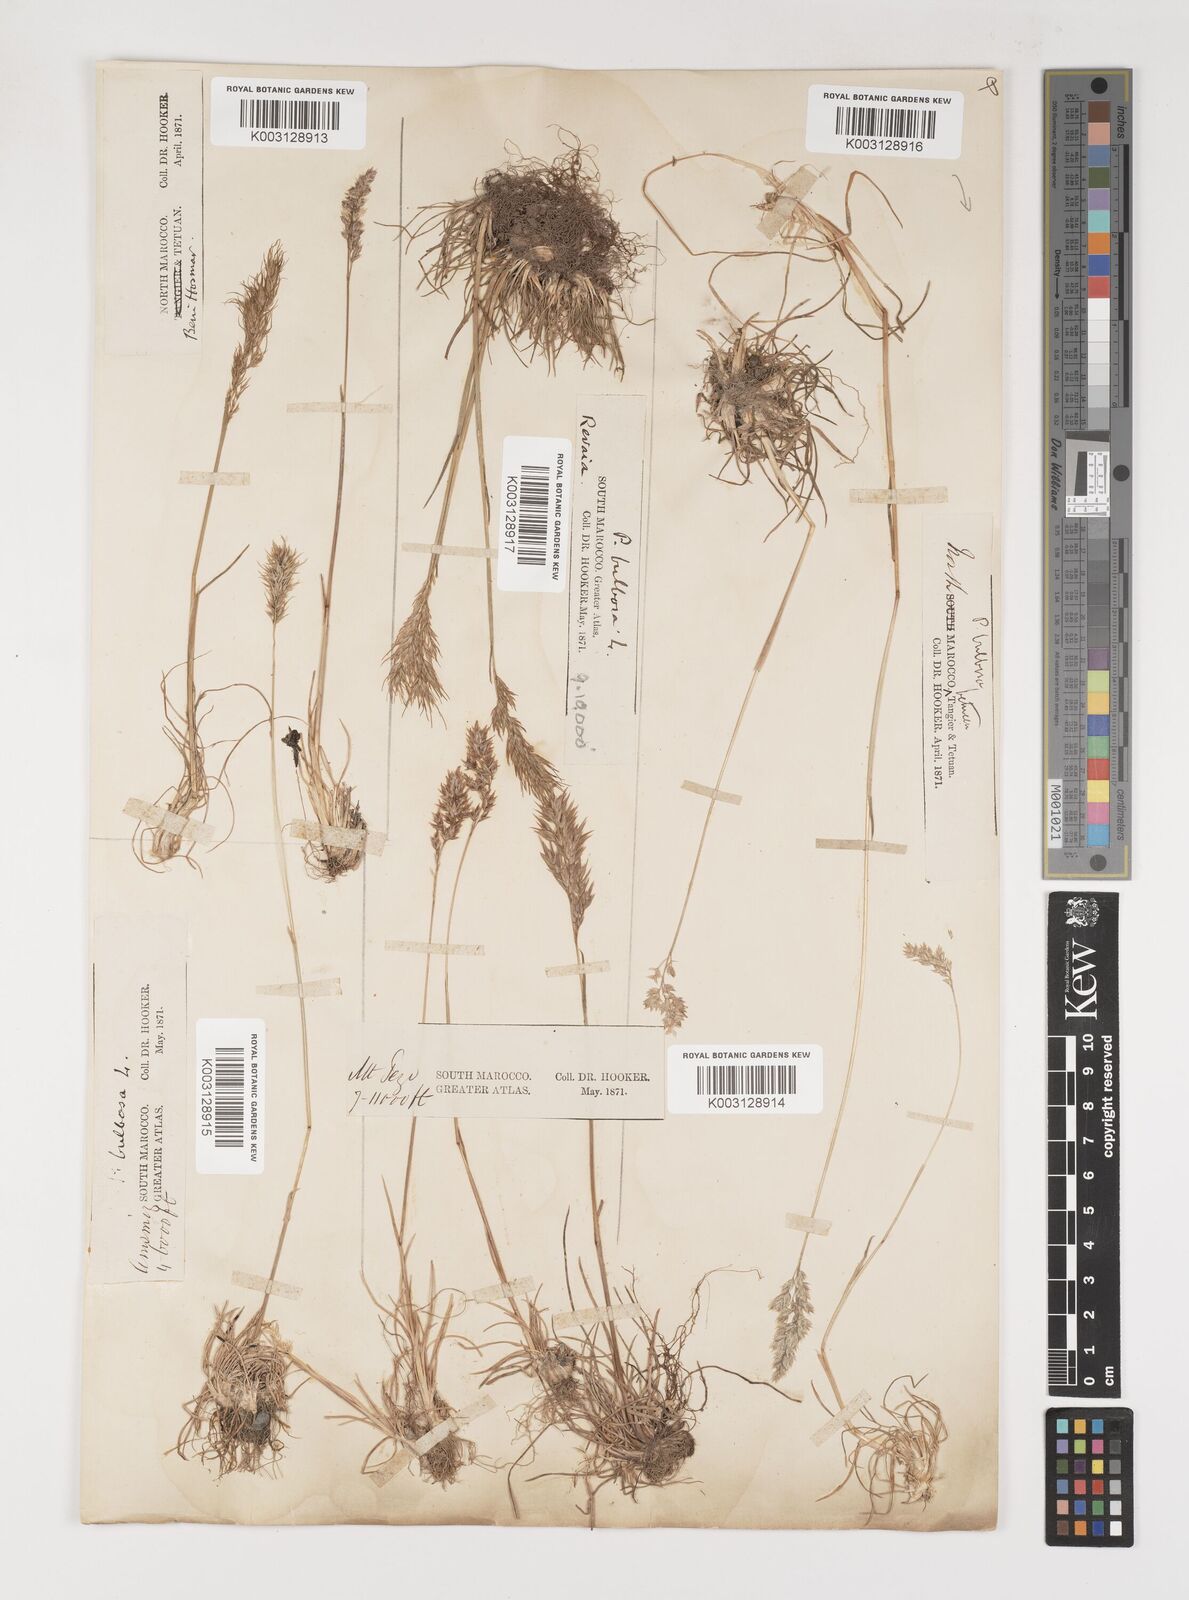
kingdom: Plantae
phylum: Tracheophyta
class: Liliopsida
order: Poales
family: Poaceae
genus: Poa
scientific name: Poa bulbosa
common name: Bulbous bluegrass
